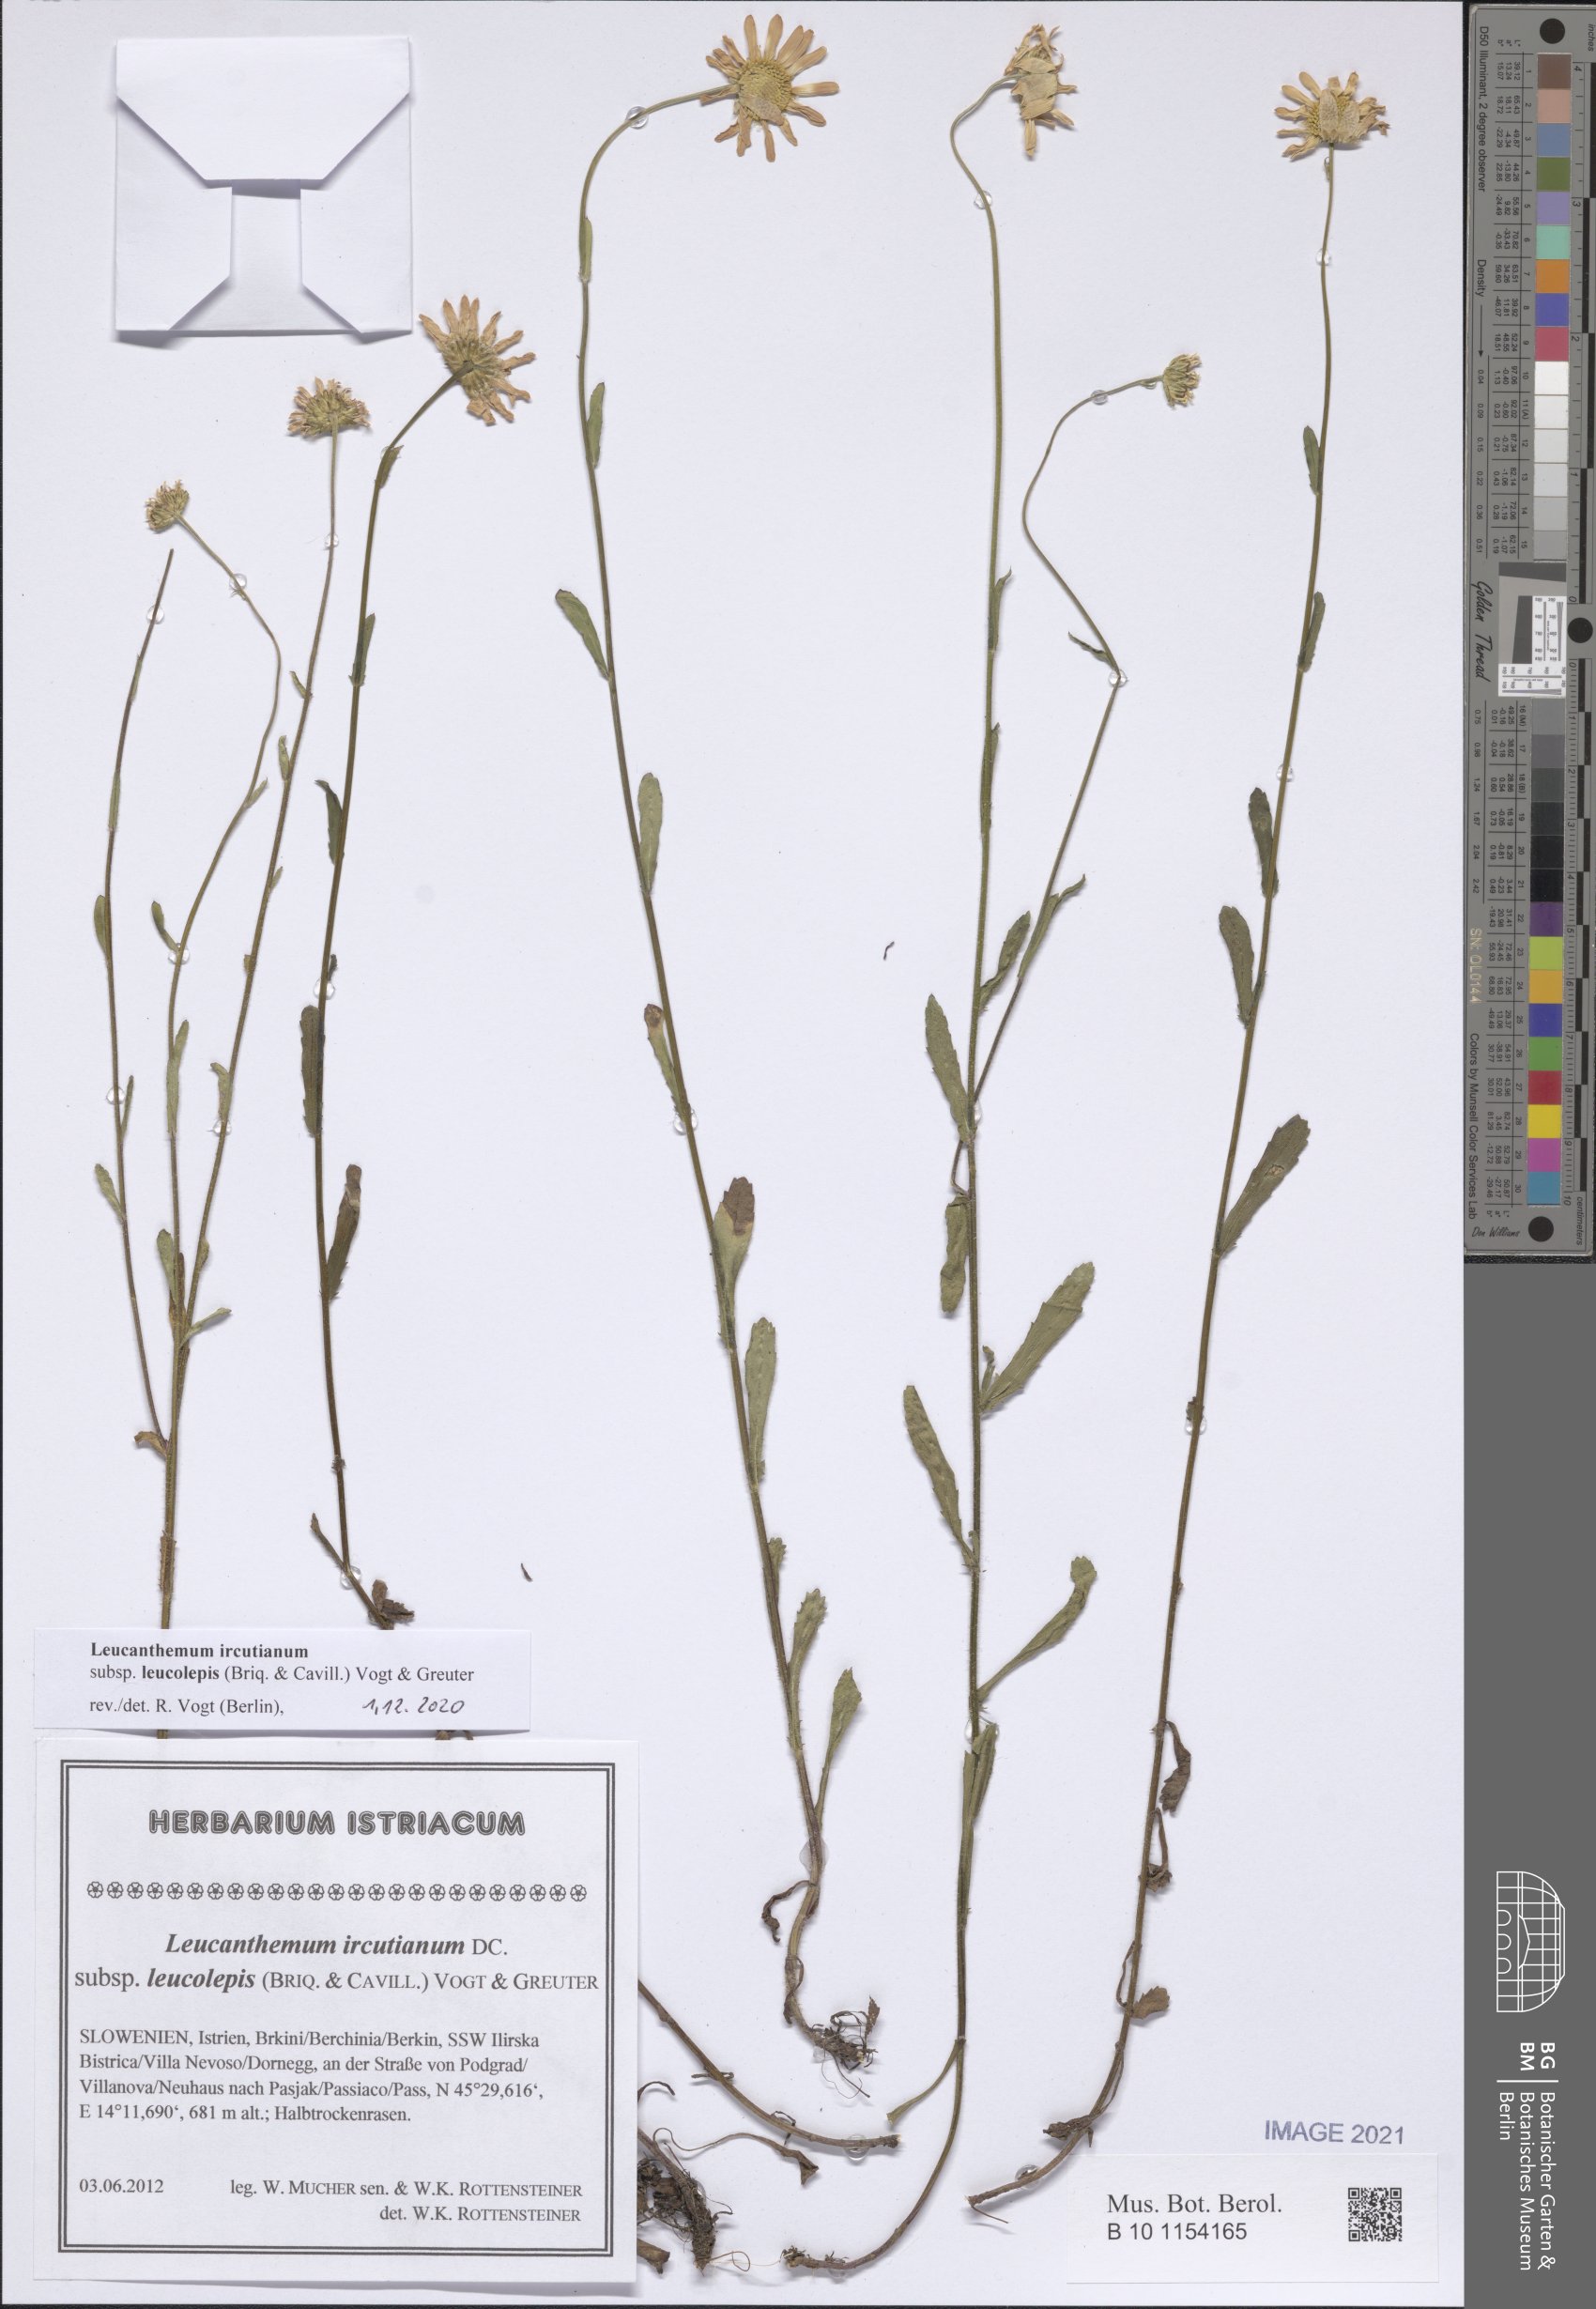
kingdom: Plantae
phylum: Tracheophyta
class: Magnoliopsida
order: Asterales
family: Asteraceae
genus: Leucanthemum
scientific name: Leucanthemum ircutianum
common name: Daisy
